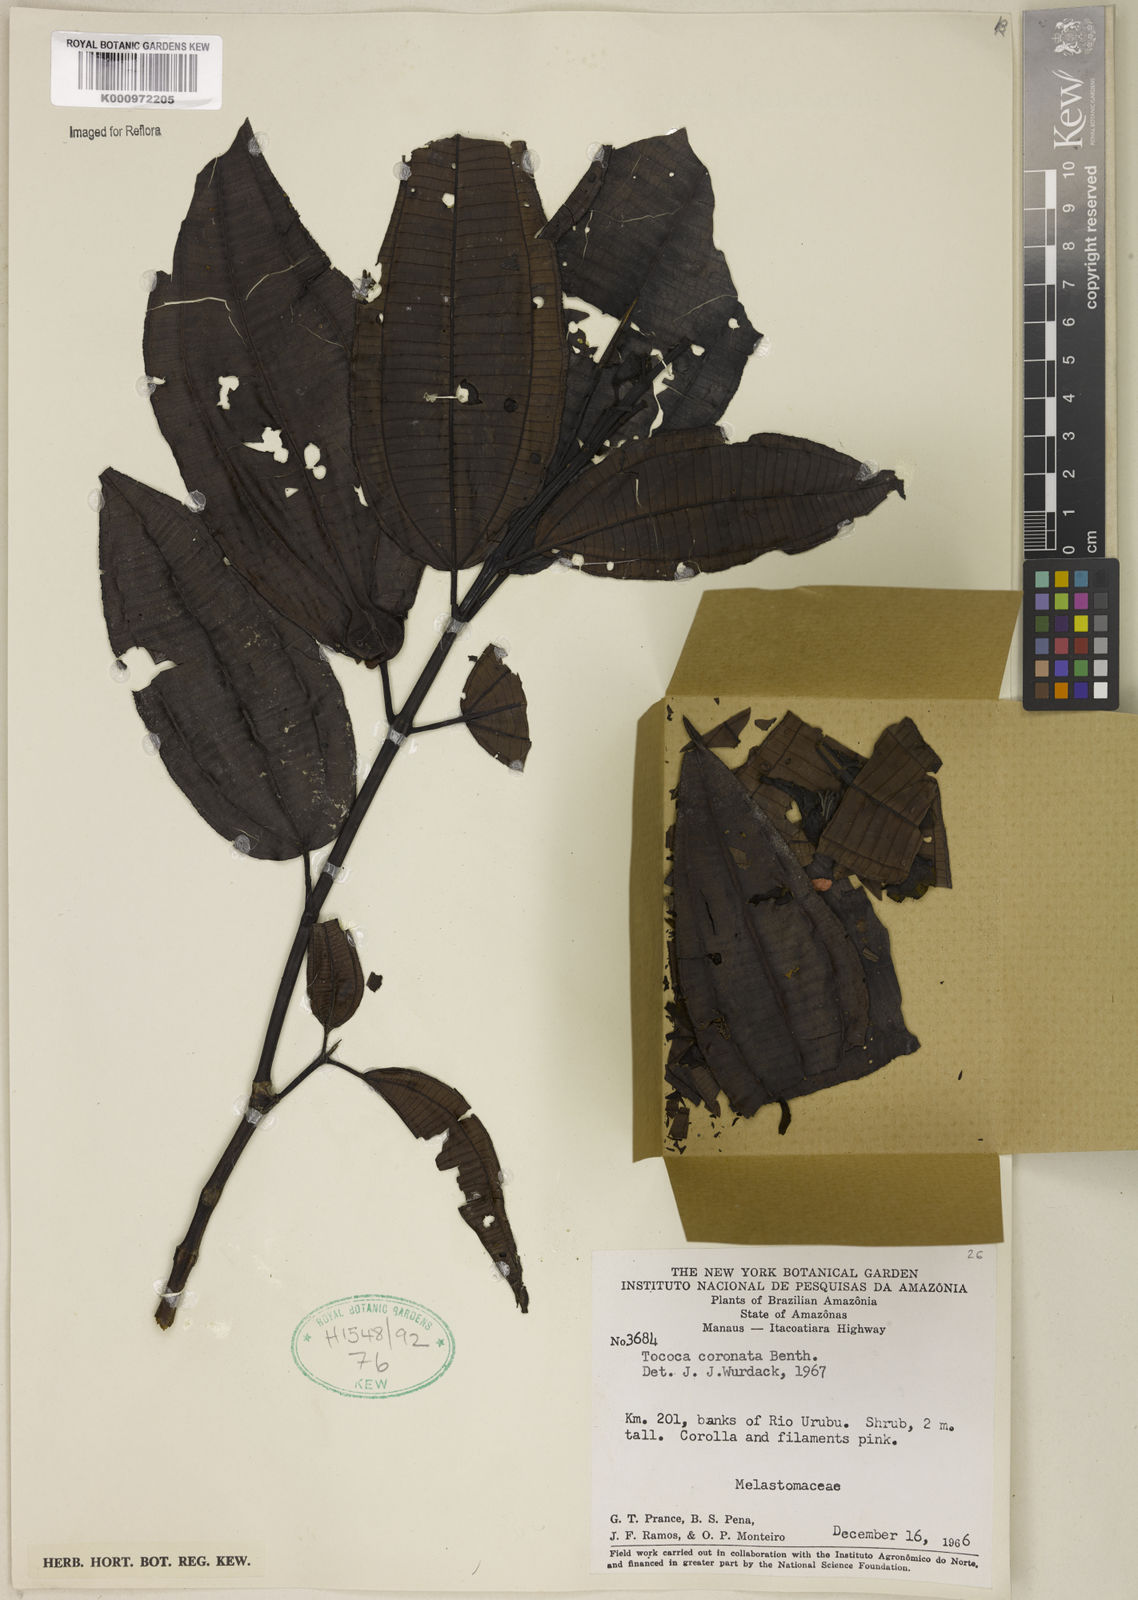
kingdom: Plantae
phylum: Tracheophyta
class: Magnoliopsida
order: Myrtales
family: Melastomataceae
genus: Miconia
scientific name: Miconia tococoronata
